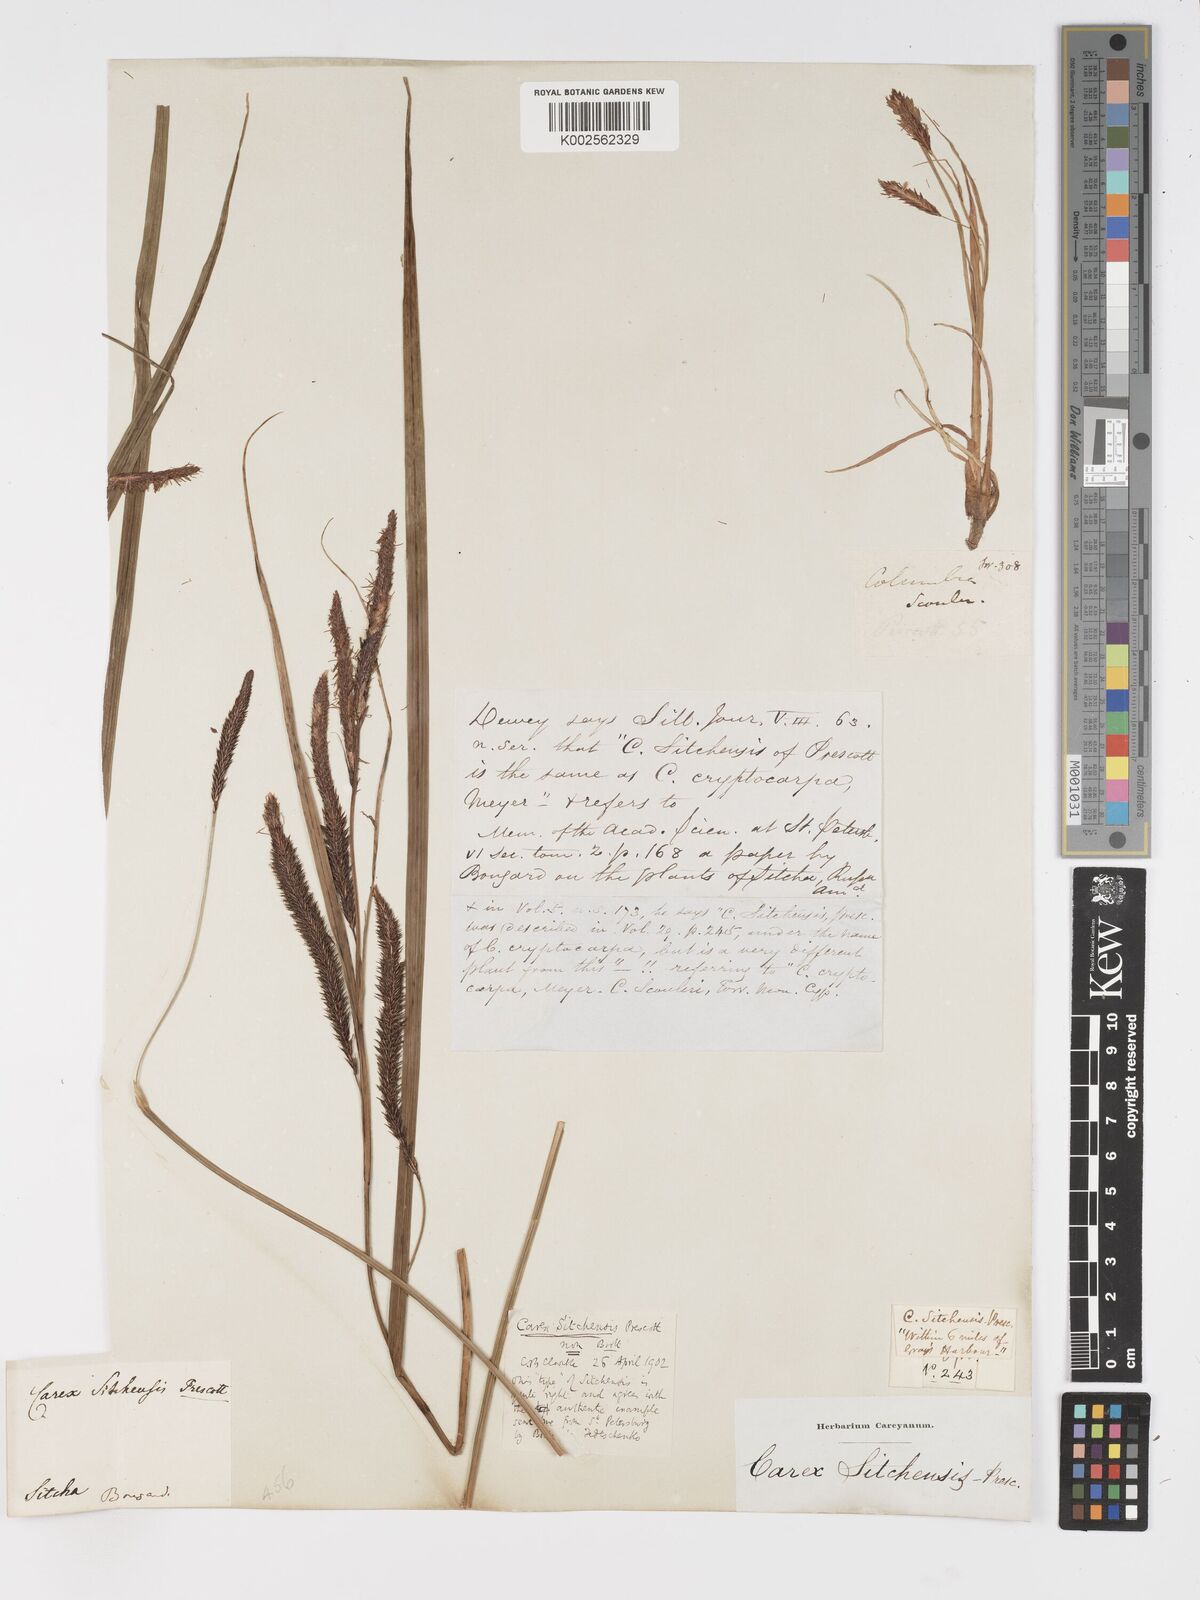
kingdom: Plantae
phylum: Tracheophyta
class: Liliopsida
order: Poales
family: Cyperaceae
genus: Carex
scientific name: Carex aquatilis
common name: Water sedge
